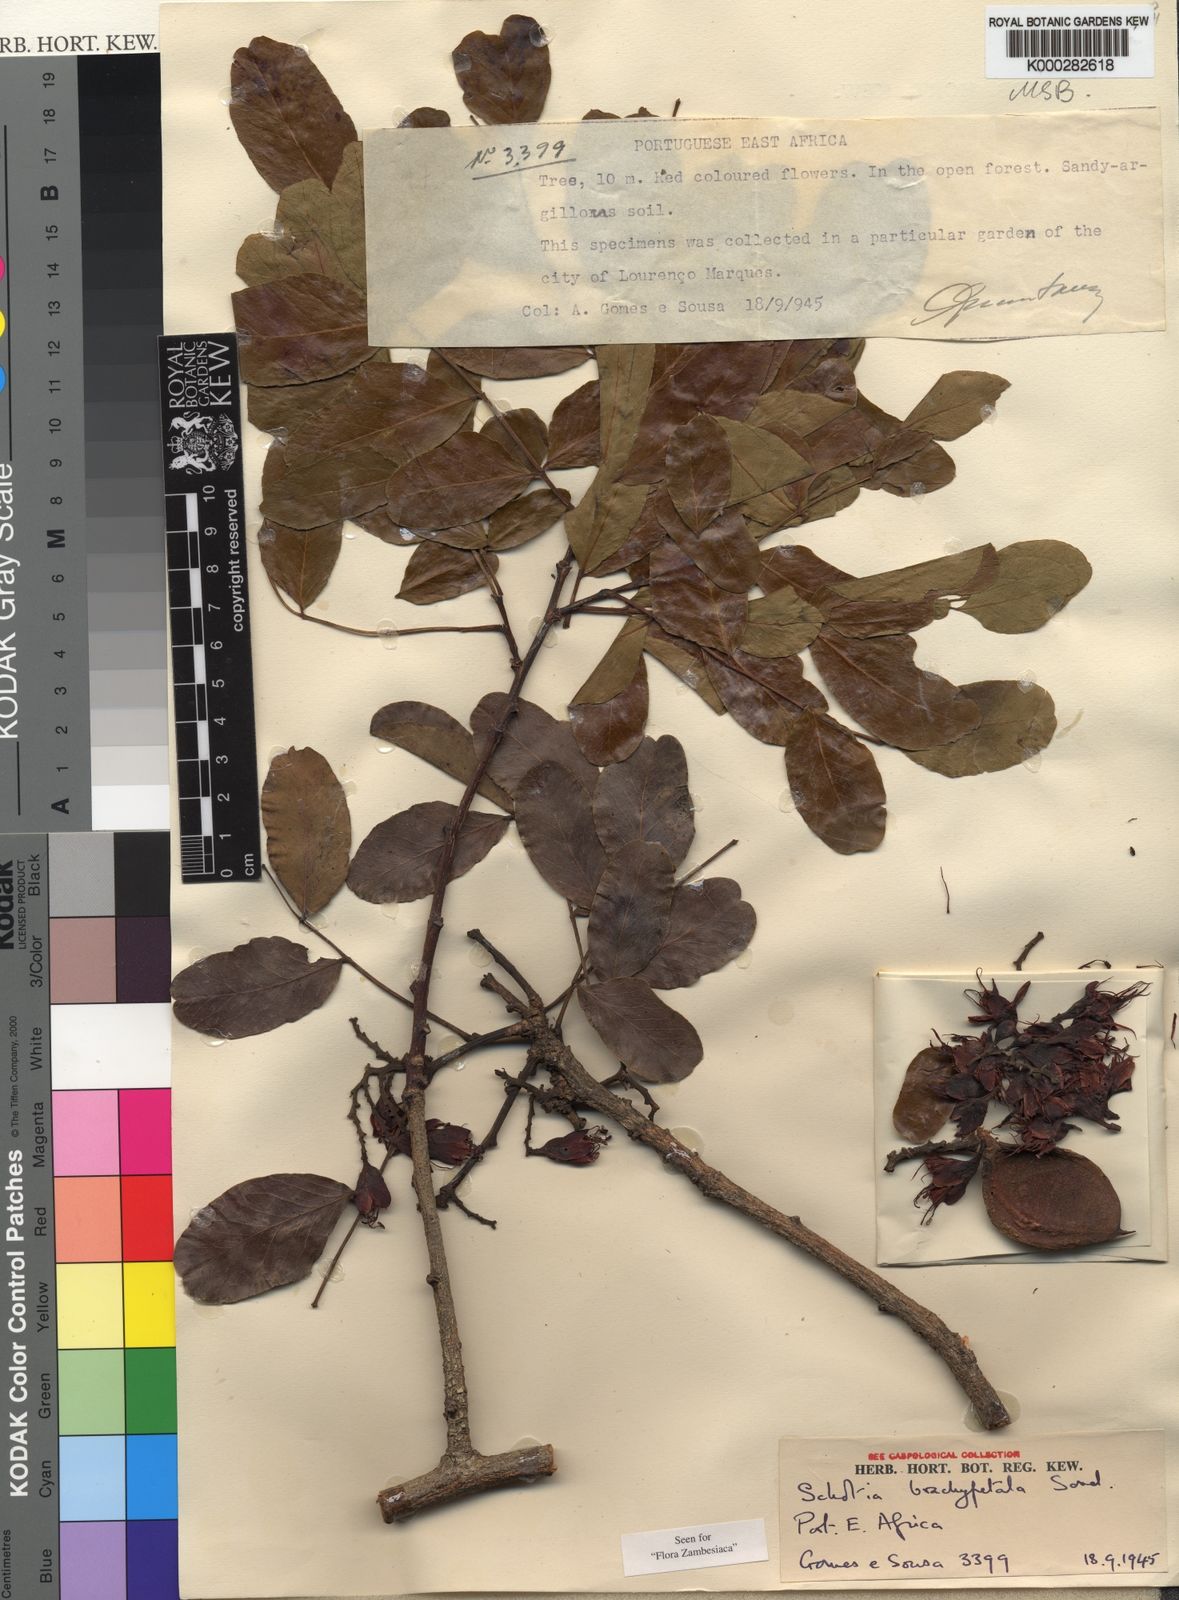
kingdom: Plantae
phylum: Tracheophyta
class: Magnoliopsida
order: Fabales
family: Fabaceae
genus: Schotia
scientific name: Schotia brachypetala
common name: Weeping boer-bean
